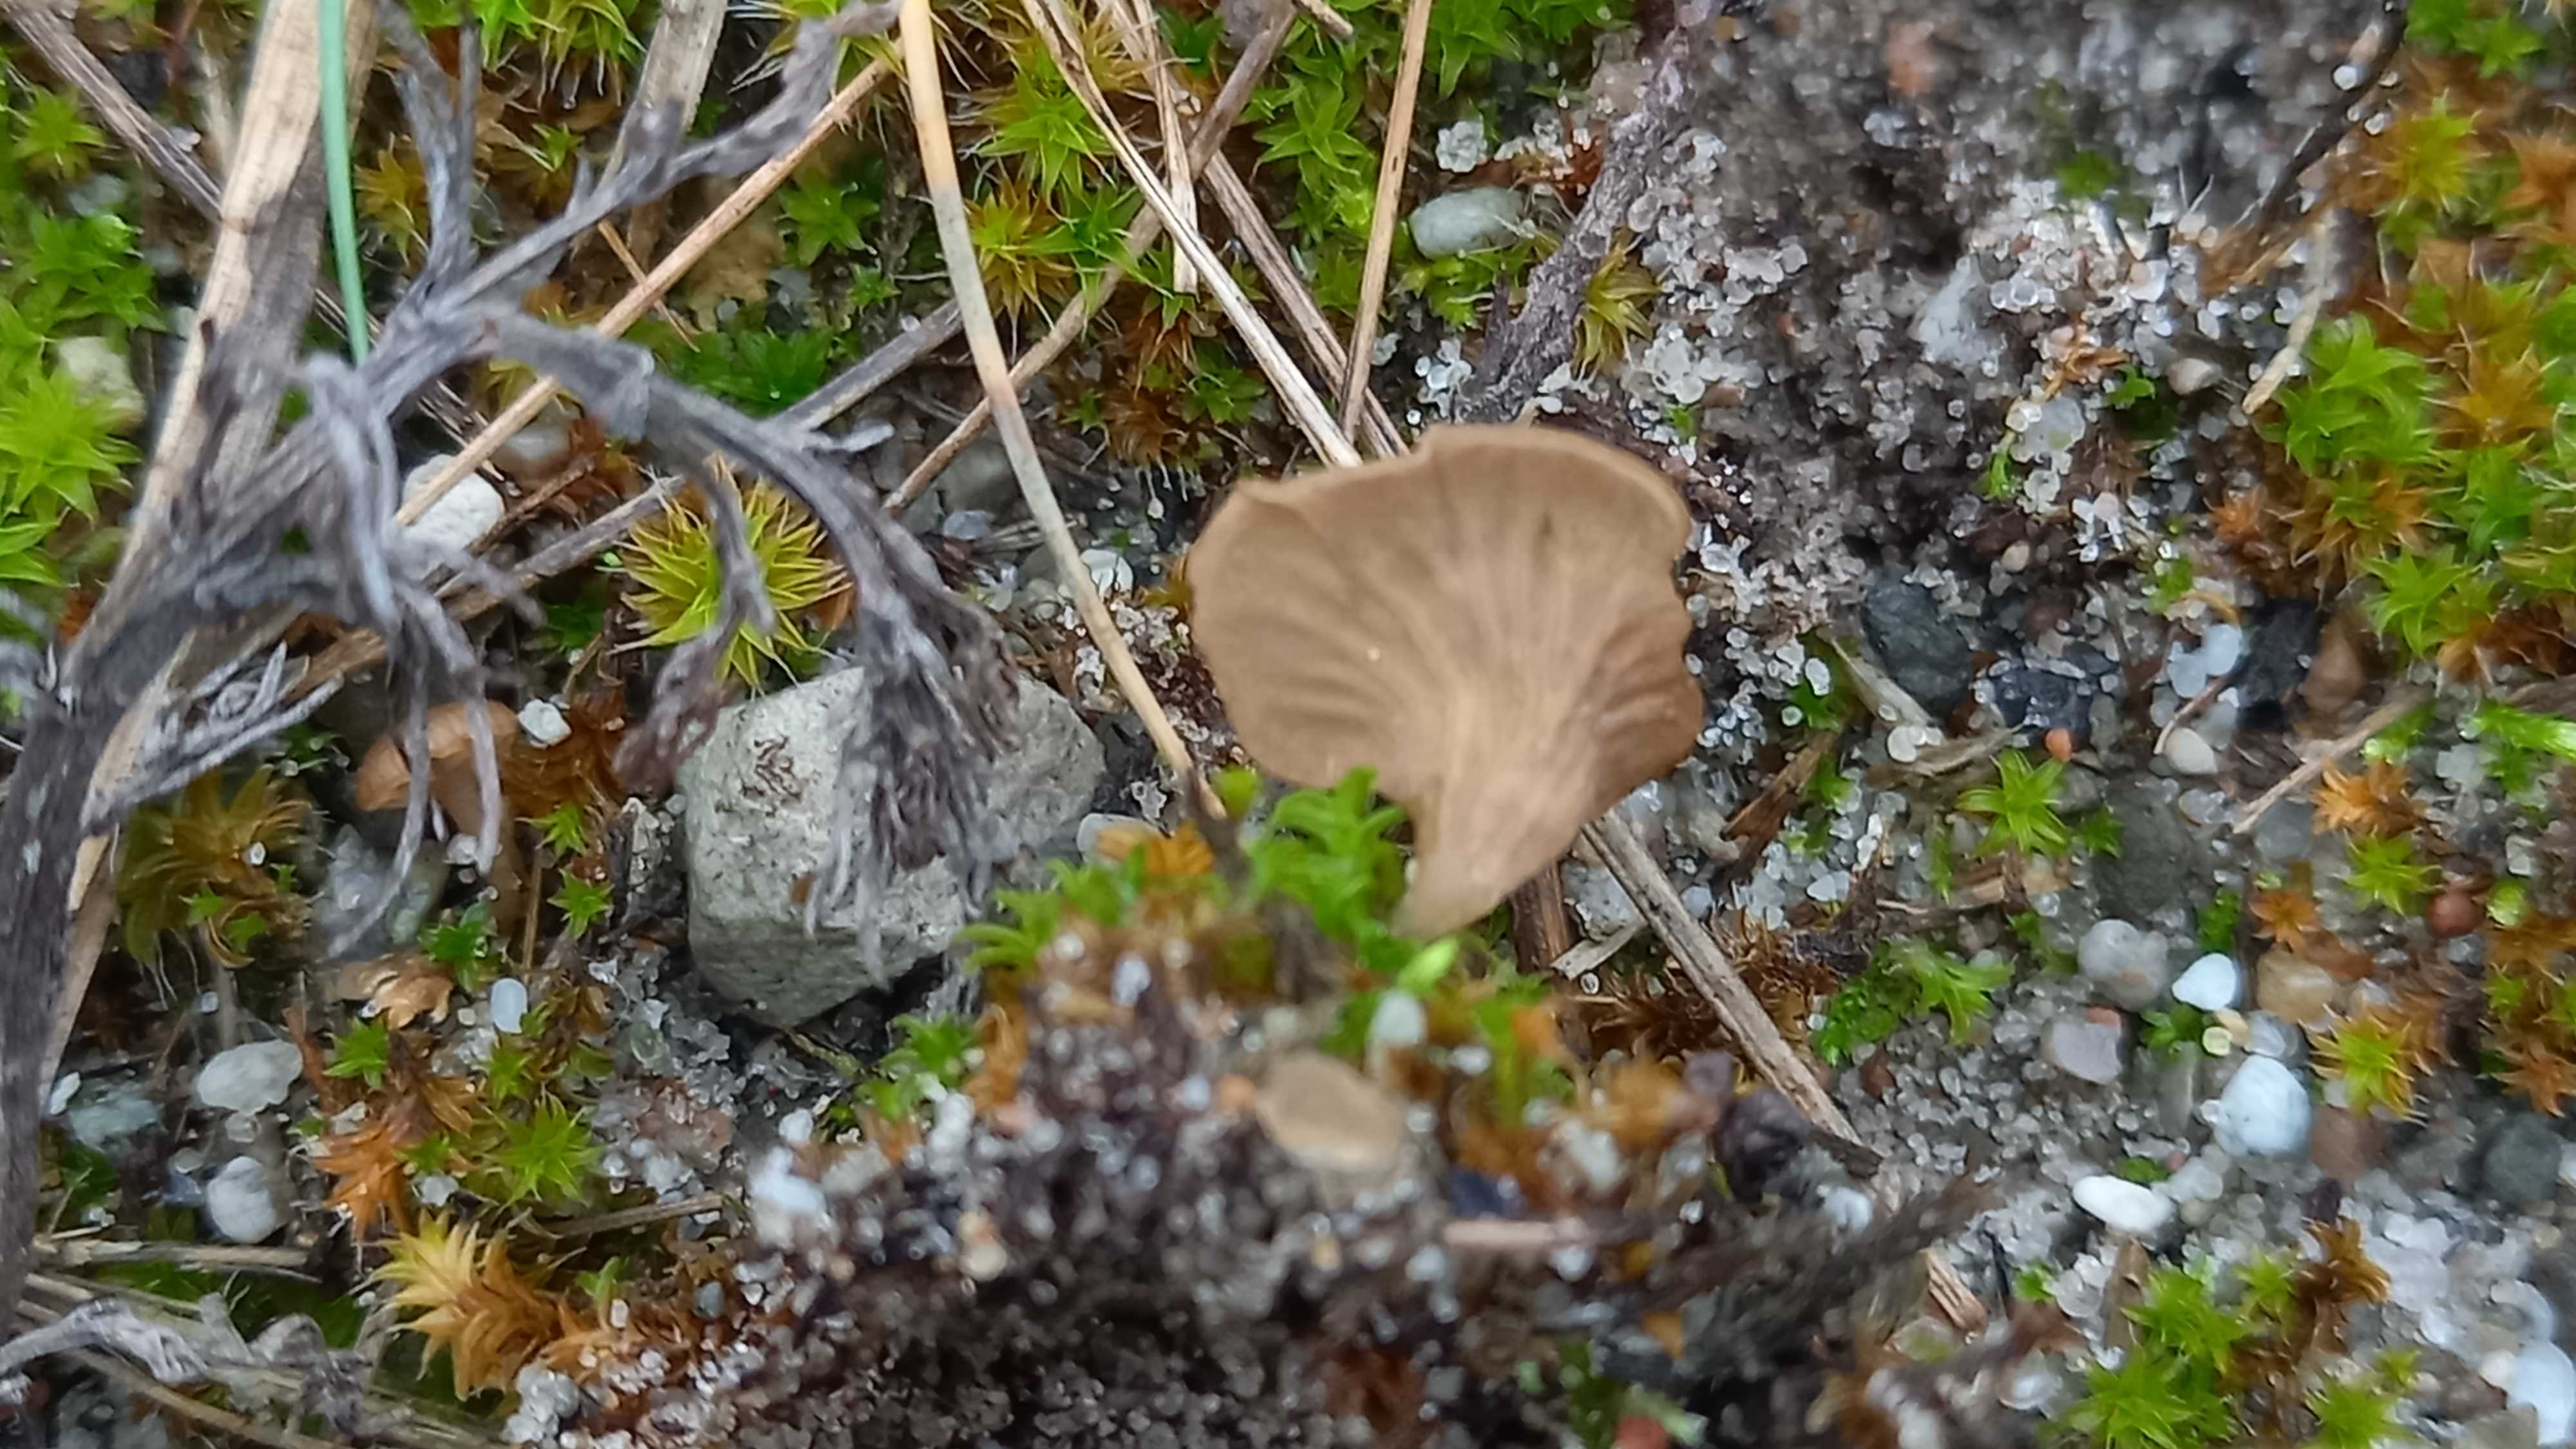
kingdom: Fungi
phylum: Basidiomycota
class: Agaricomycetes
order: Agaricales
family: Hygrophoraceae
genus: Arrhenia
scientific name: Arrhenia spathulata
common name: skæv fontænehat
